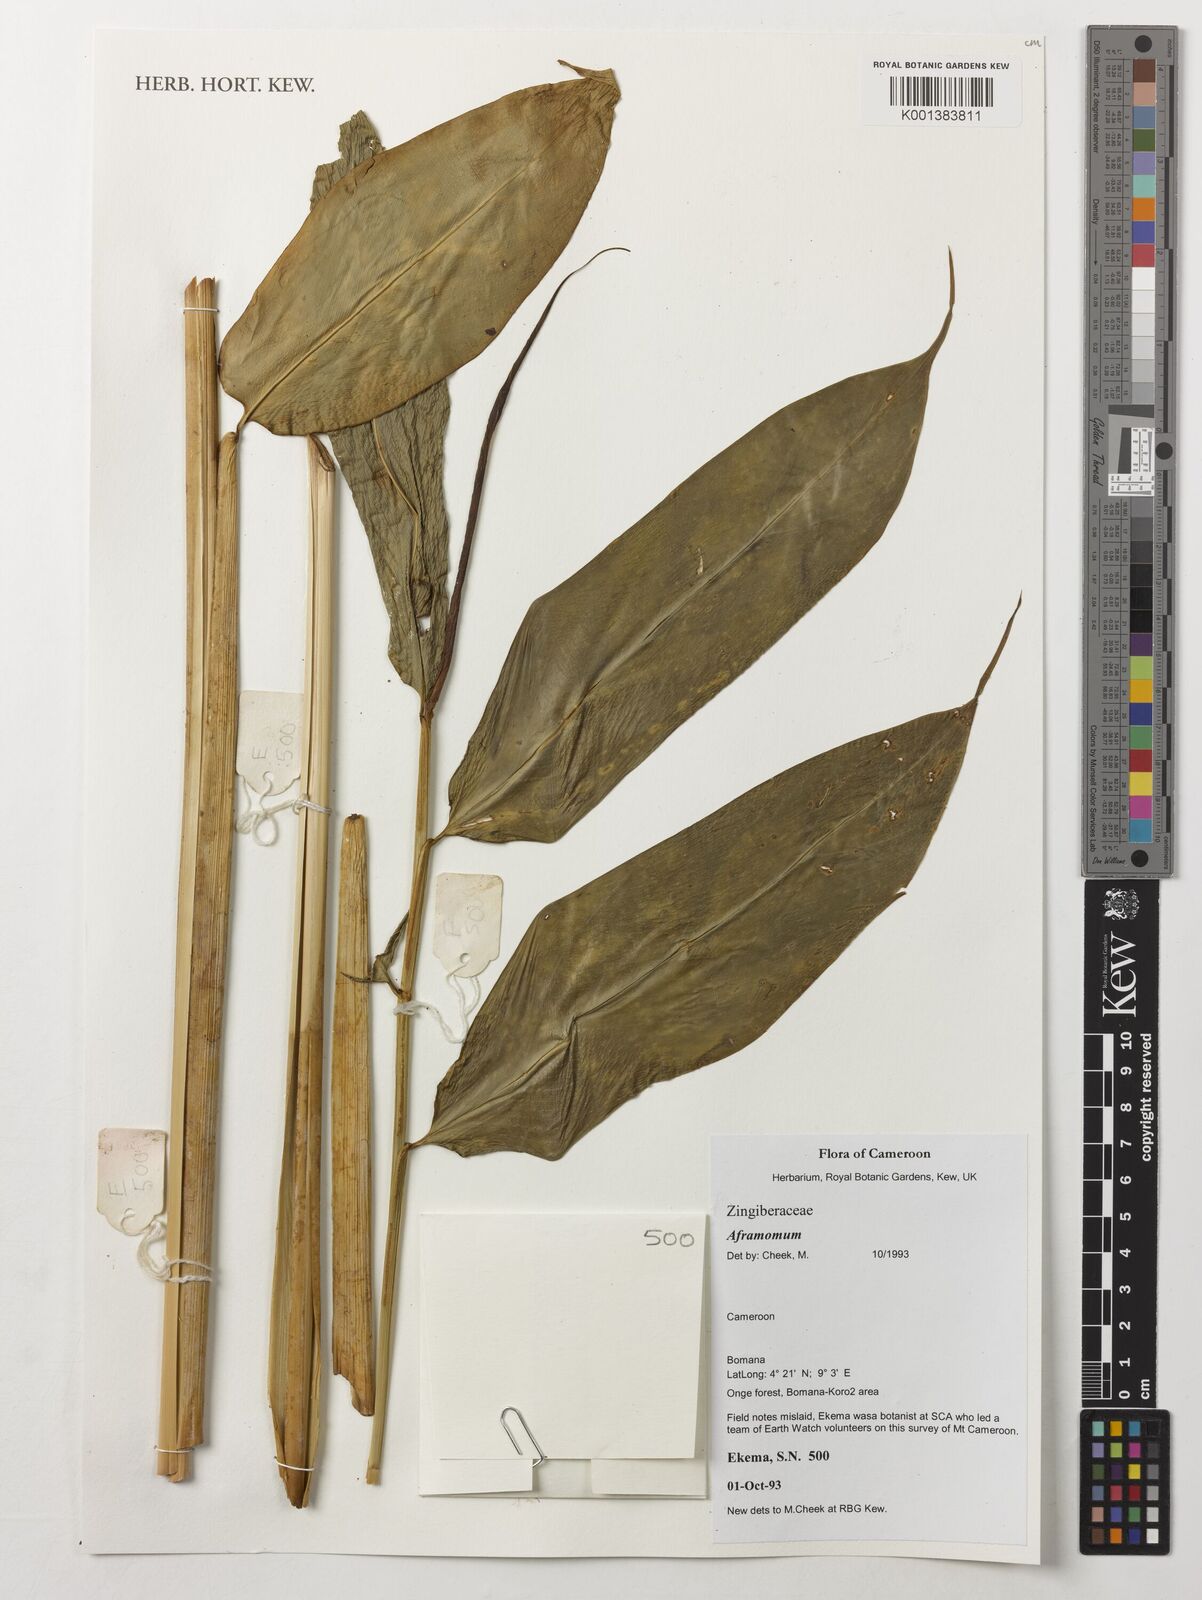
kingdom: Plantae
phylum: Tracheophyta
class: Liliopsida
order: Zingiberales
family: Zingiberaceae
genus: Aframomum
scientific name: Aframomum
